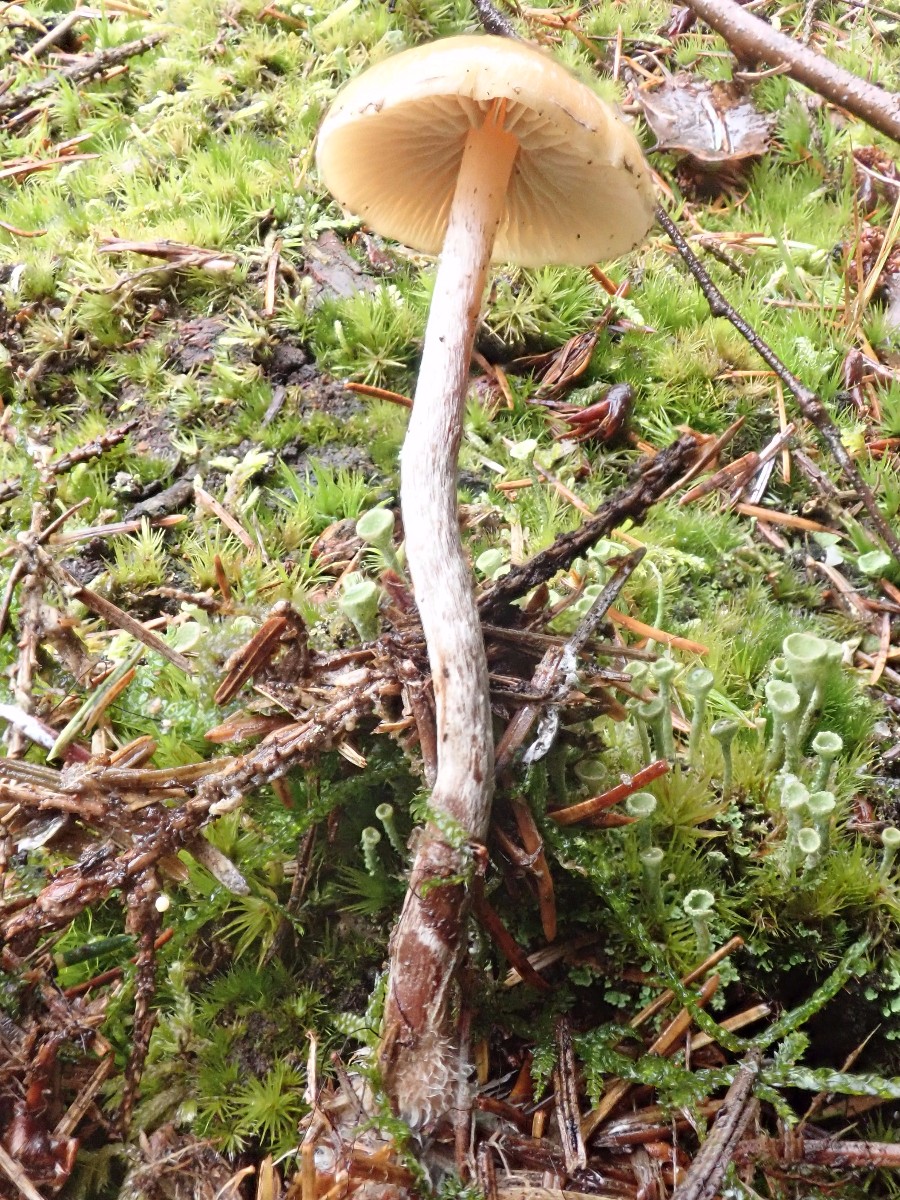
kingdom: Fungi
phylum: Basidiomycota
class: Agaricomycetes
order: Agaricales
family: Strophariaceae
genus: Hypholoma
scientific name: Hypholoma marginatum
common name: enlig svovlhat
